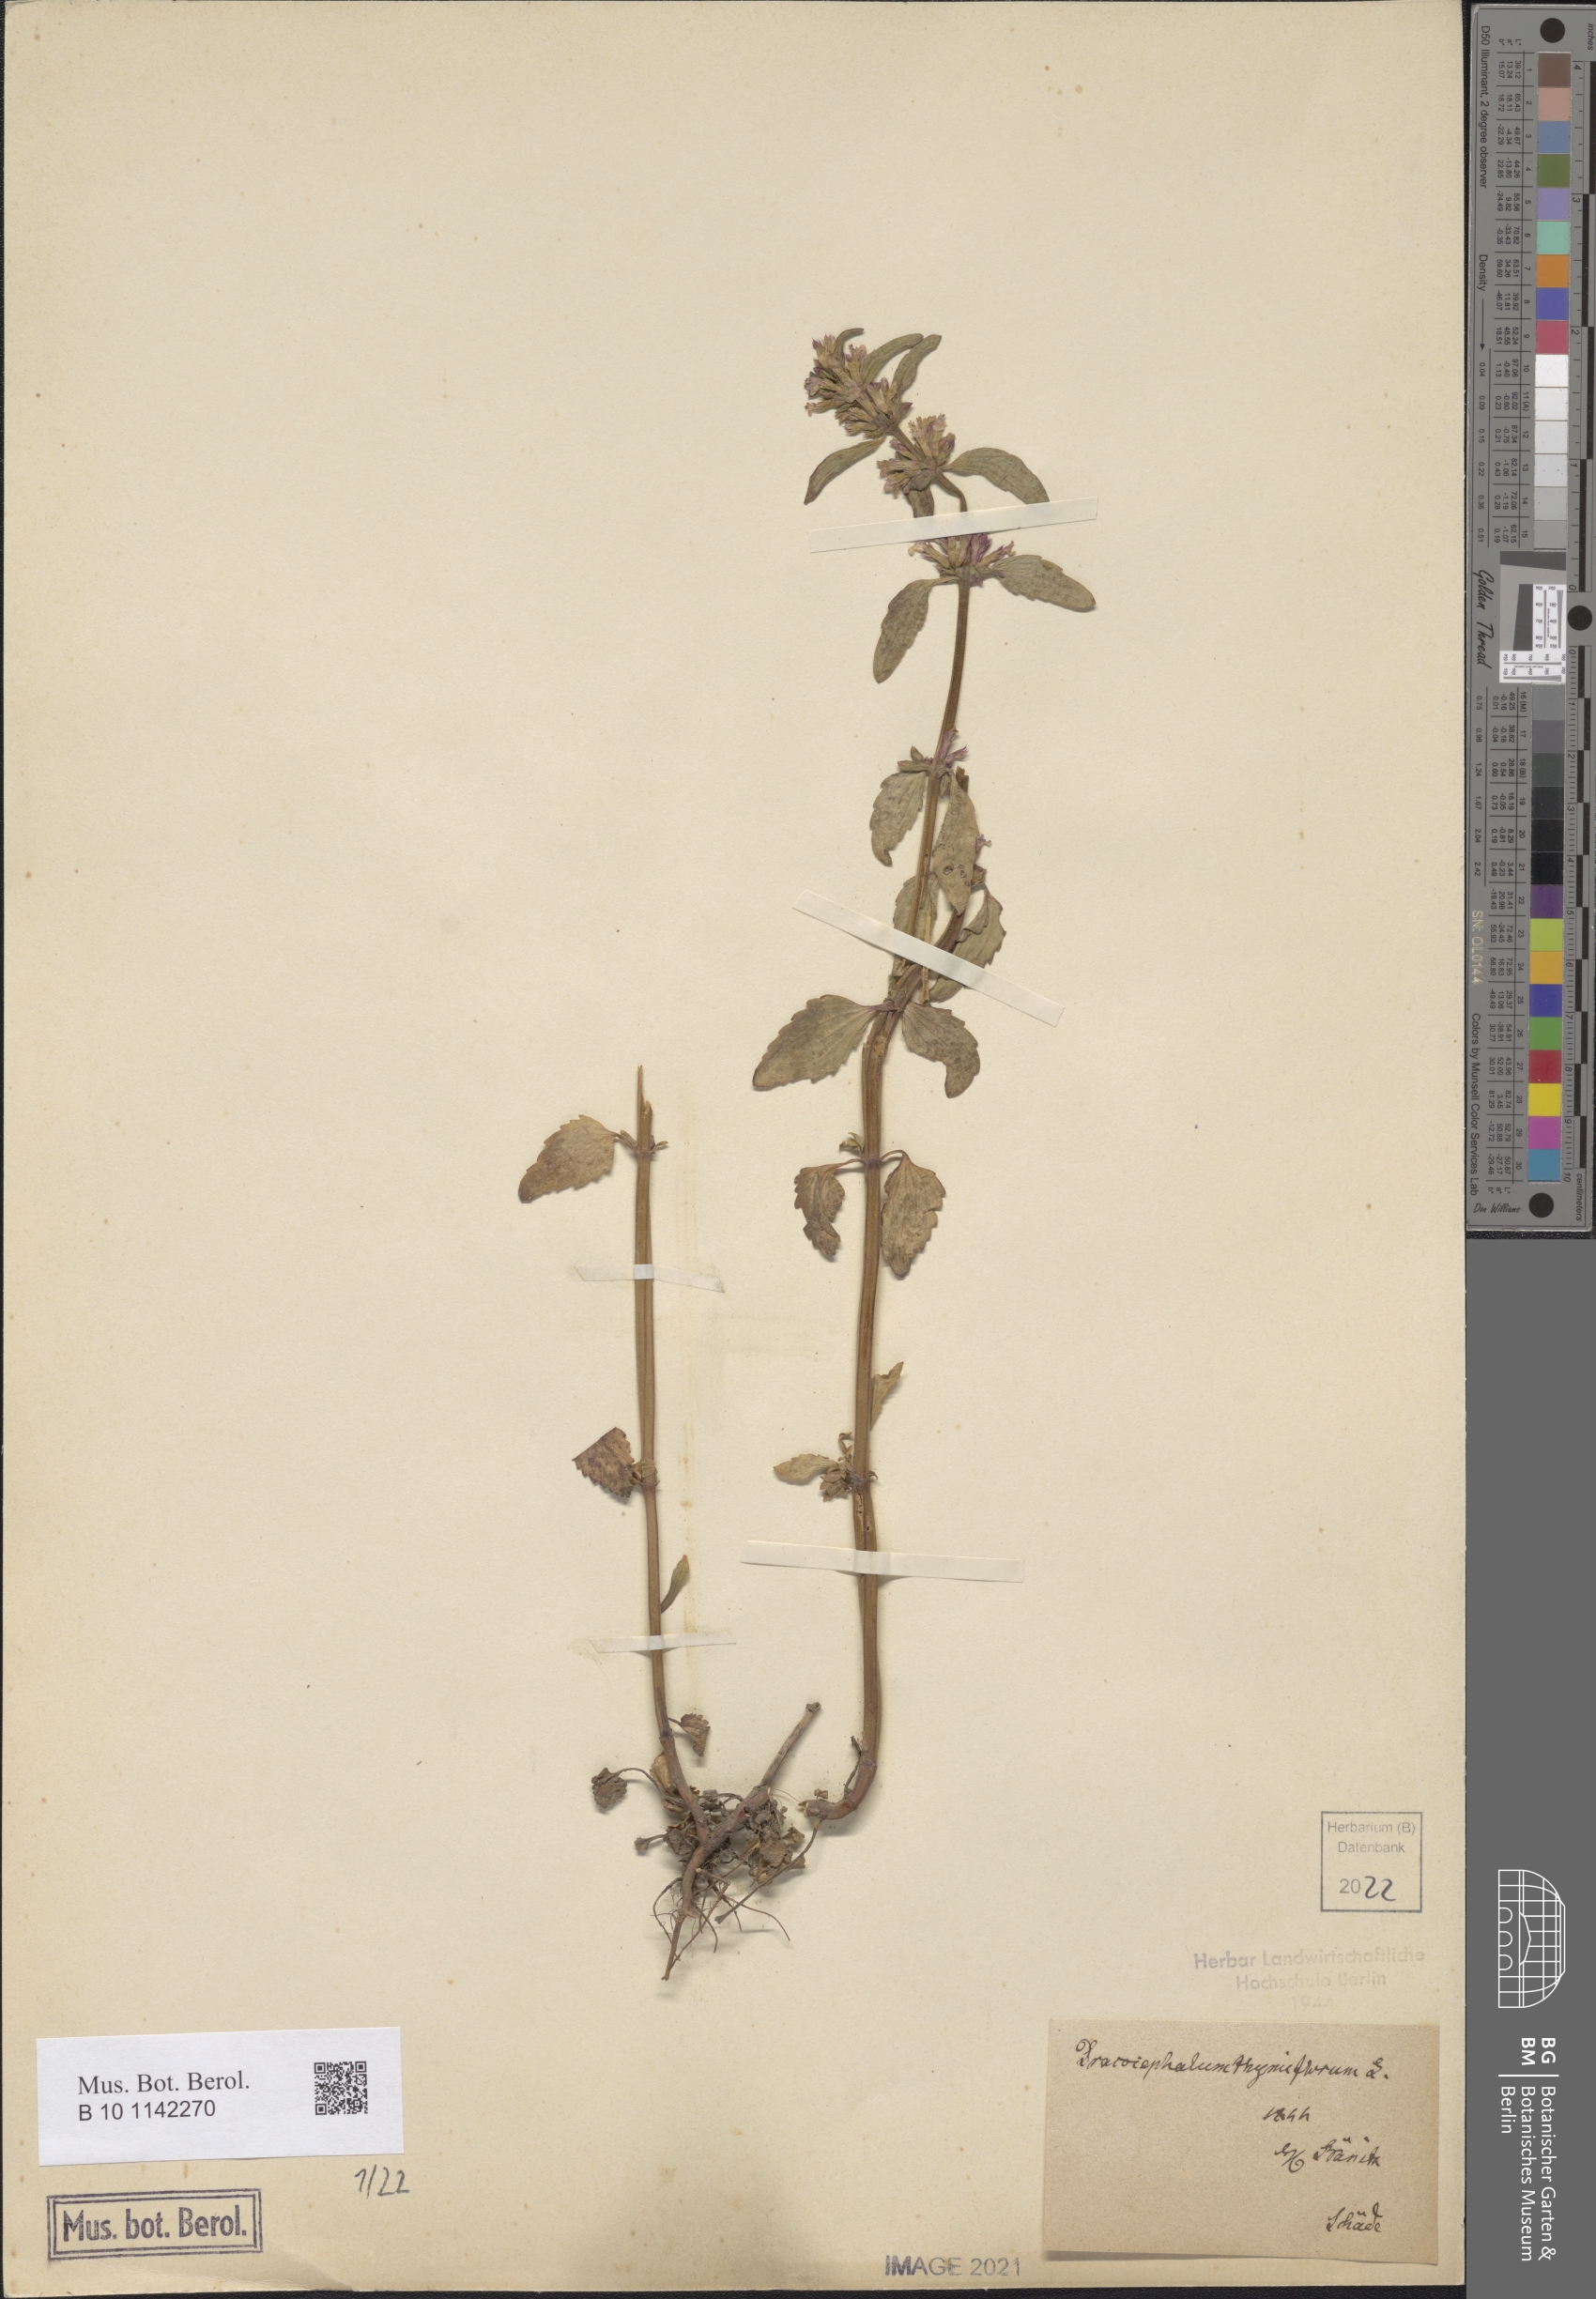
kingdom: Plantae
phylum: Tracheophyta
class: Magnoliopsida
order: Lamiales
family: Lamiaceae
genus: Dracocephalum
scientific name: Dracocephalum thymiflorum
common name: Thymeleaf dragonhead
